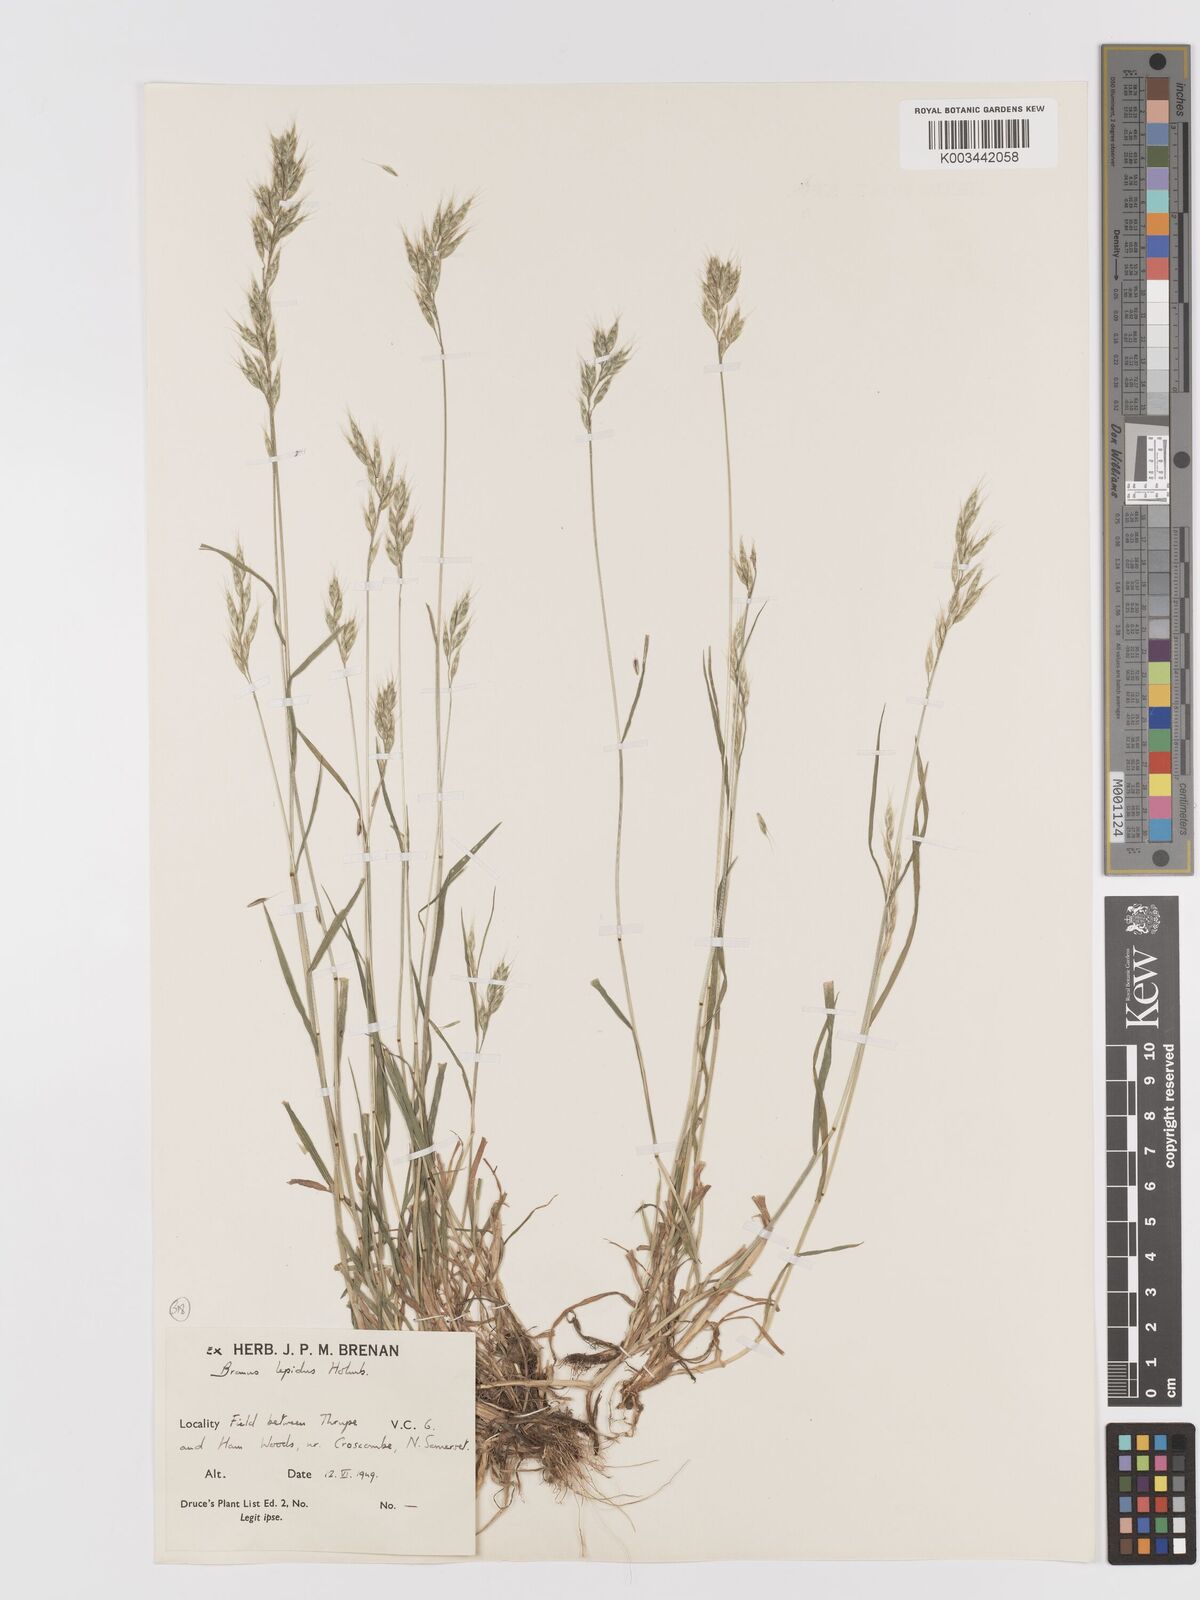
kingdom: Plantae
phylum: Tracheophyta
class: Liliopsida
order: Poales
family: Poaceae
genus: Bromus
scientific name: Bromus lepidus
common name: Slender soft-brome
